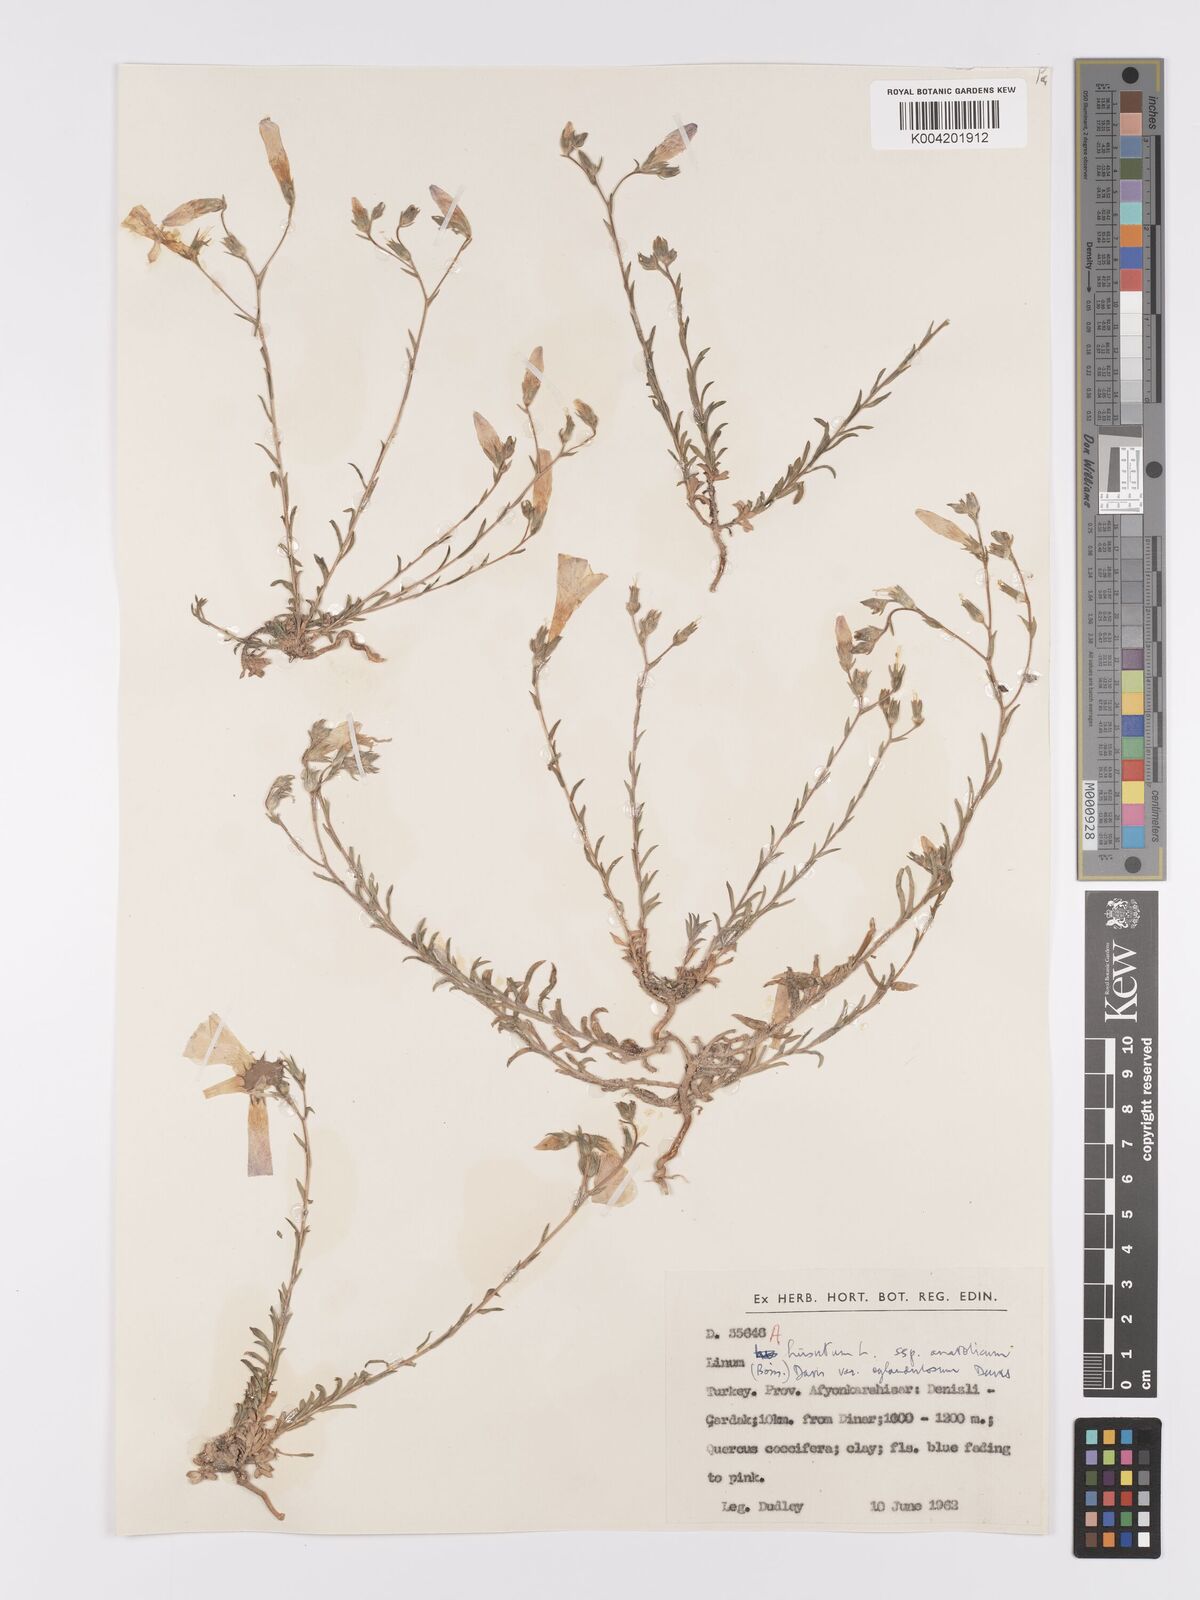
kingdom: Plantae
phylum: Tracheophyta
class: Magnoliopsida
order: Malpighiales
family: Linaceae
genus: Linum
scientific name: Linum
